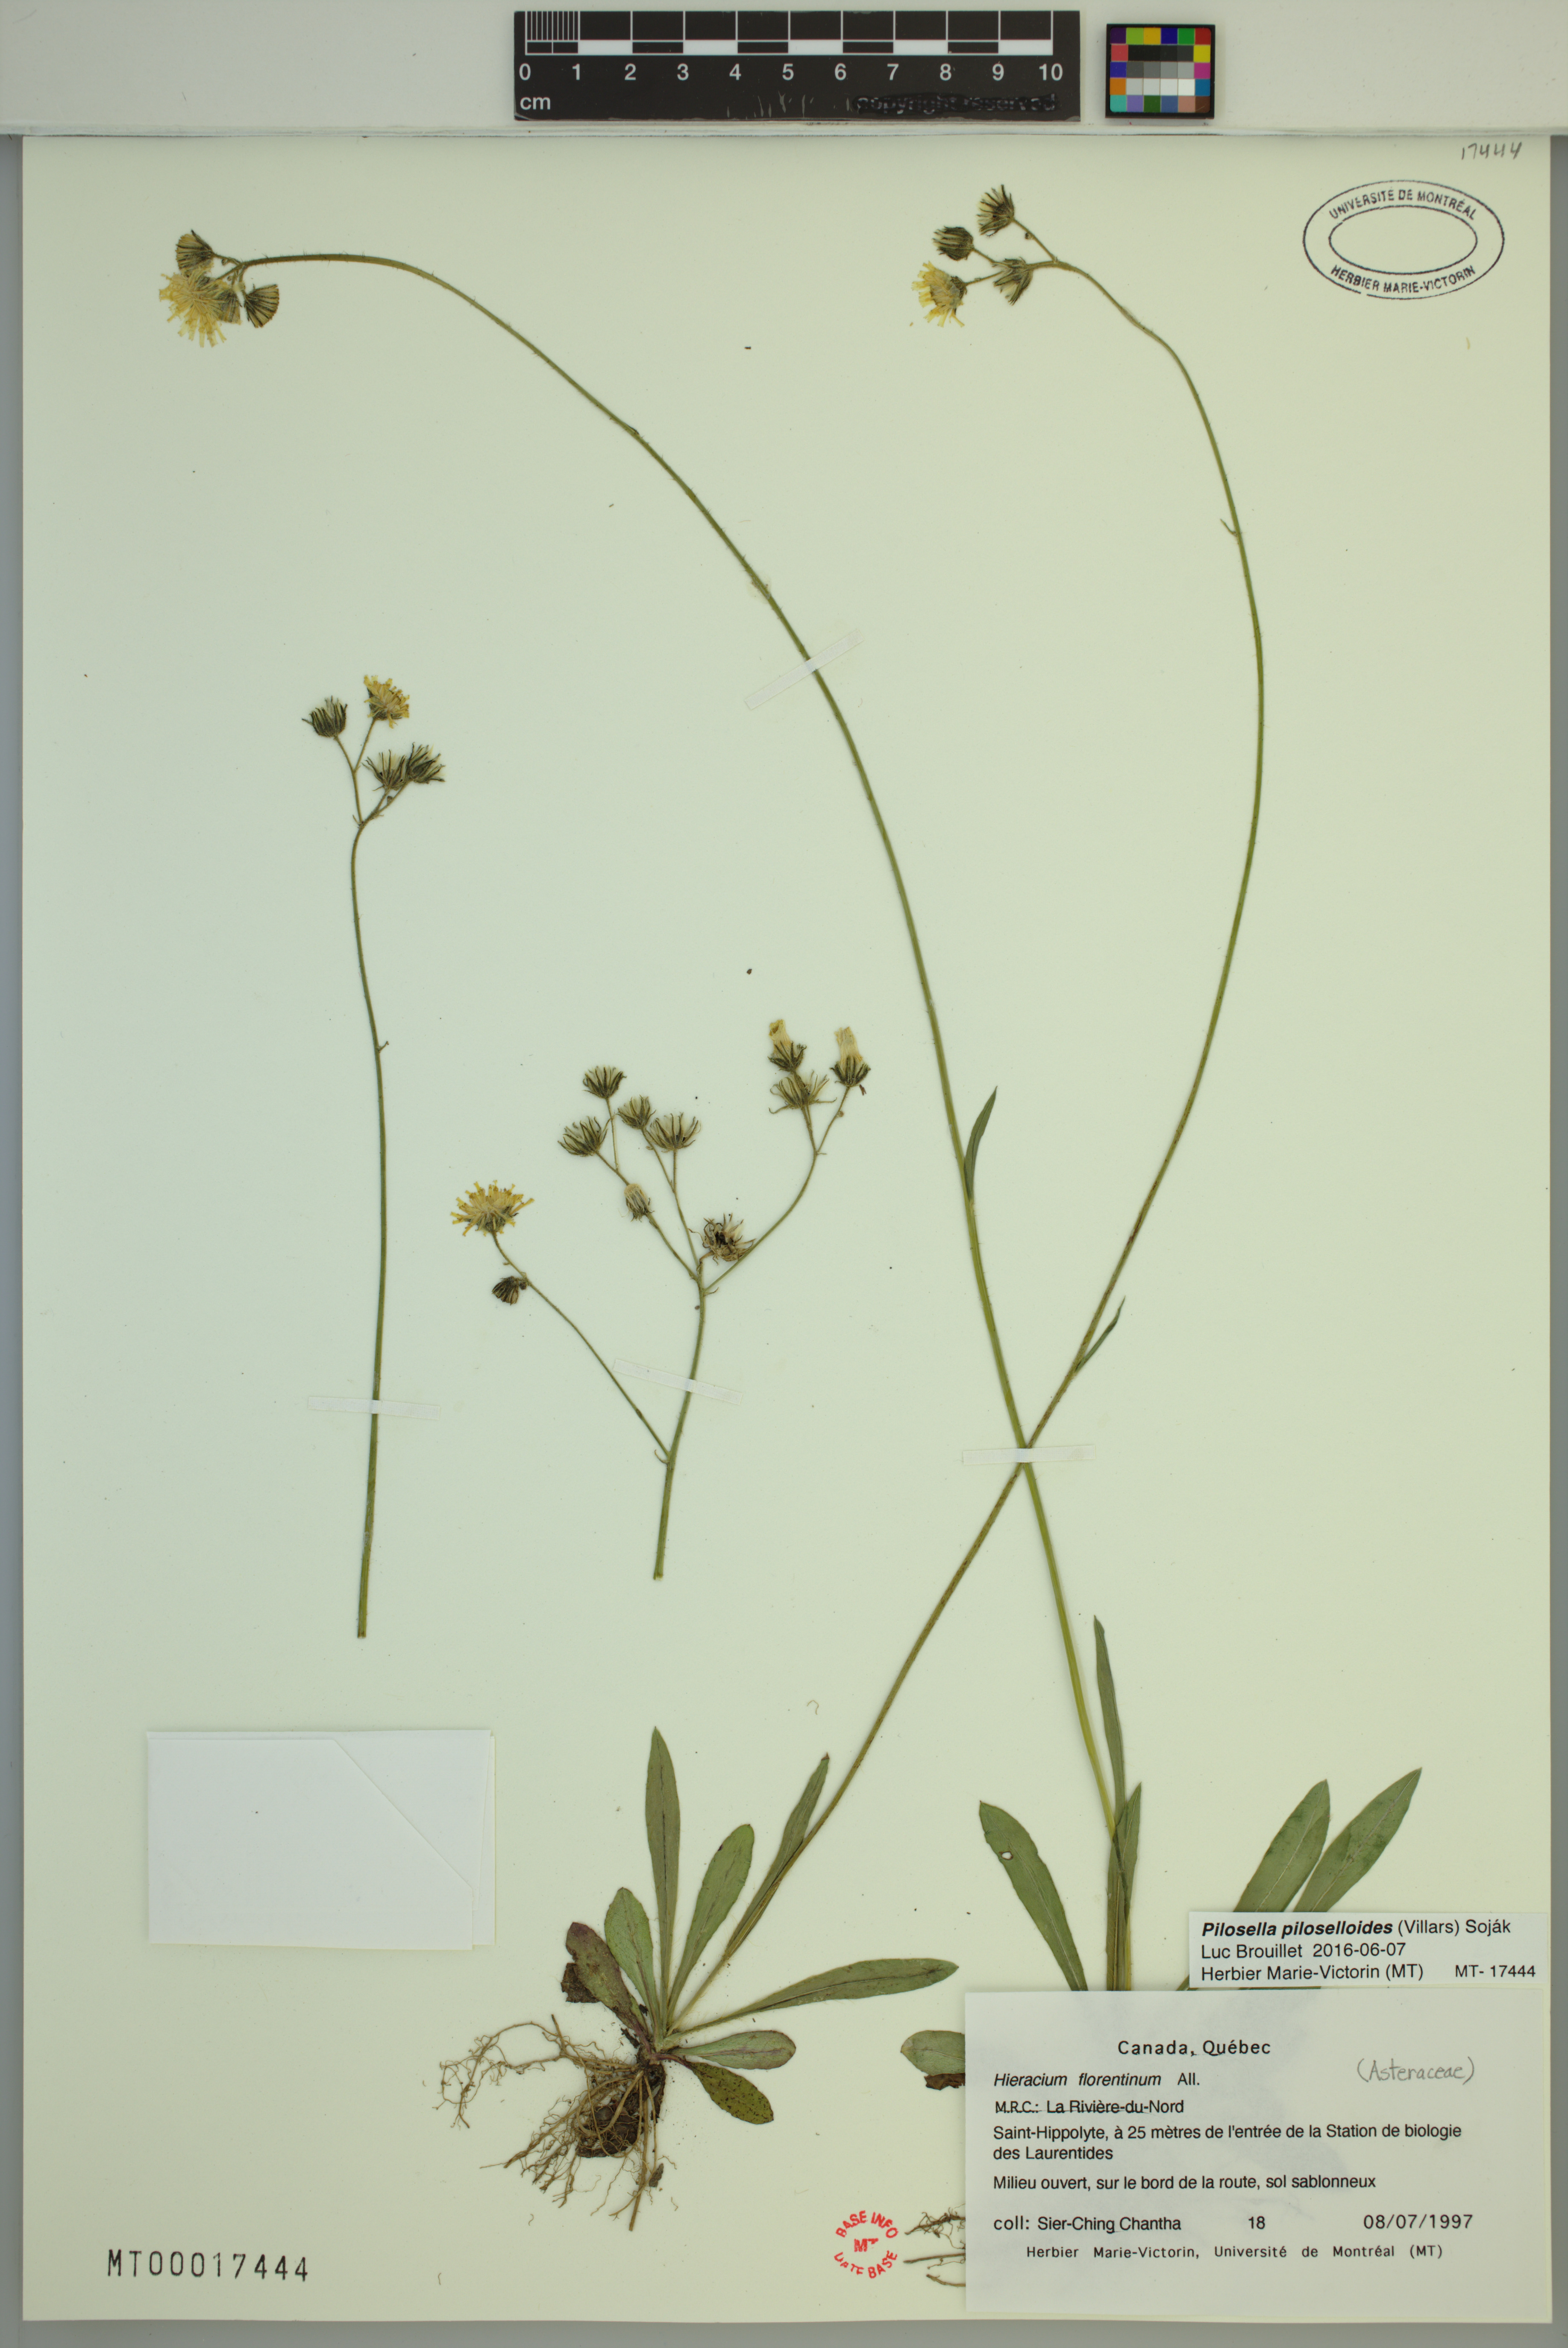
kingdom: Plantae
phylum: Tracheophyta
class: Magnoliopsida
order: Asterales
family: Asteraceae
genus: Pilosella
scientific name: Pilosella piloselloides
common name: Glaucous king-devil
